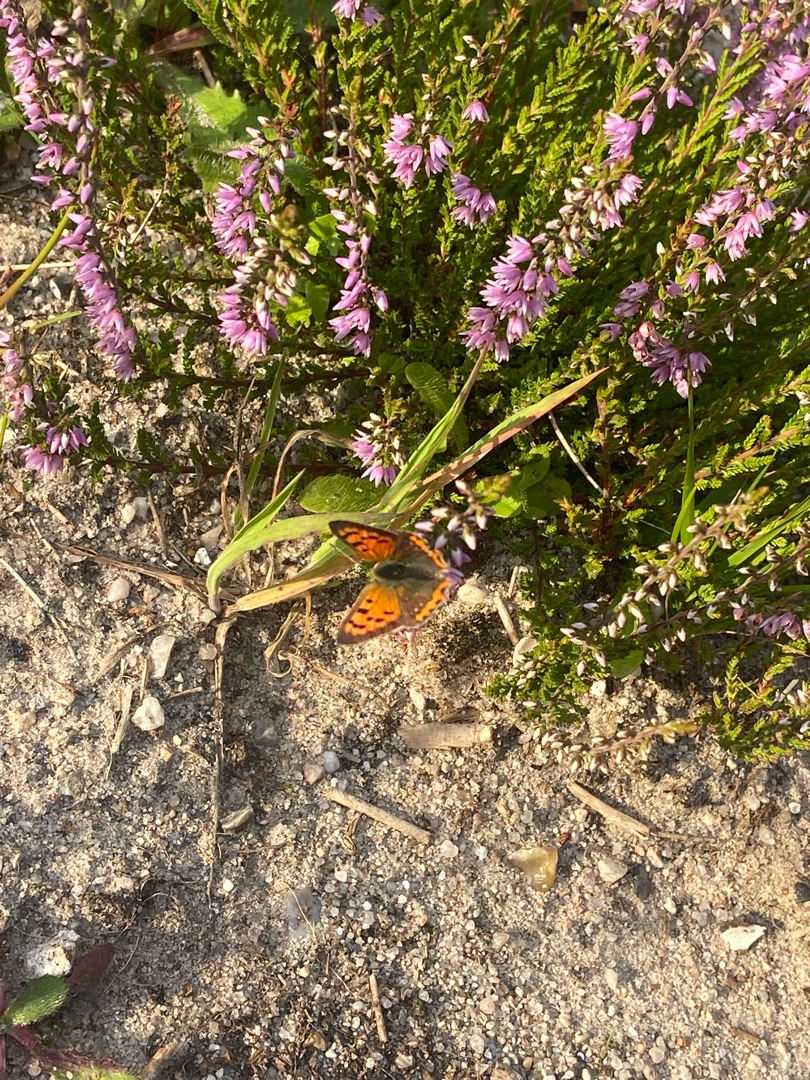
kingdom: Animalia
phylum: Arthropoda
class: Insecta
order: Lepidoptera
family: Lycaenidae
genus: Lycaena
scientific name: Lycaena phlaeas
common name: Lille ildfugl
